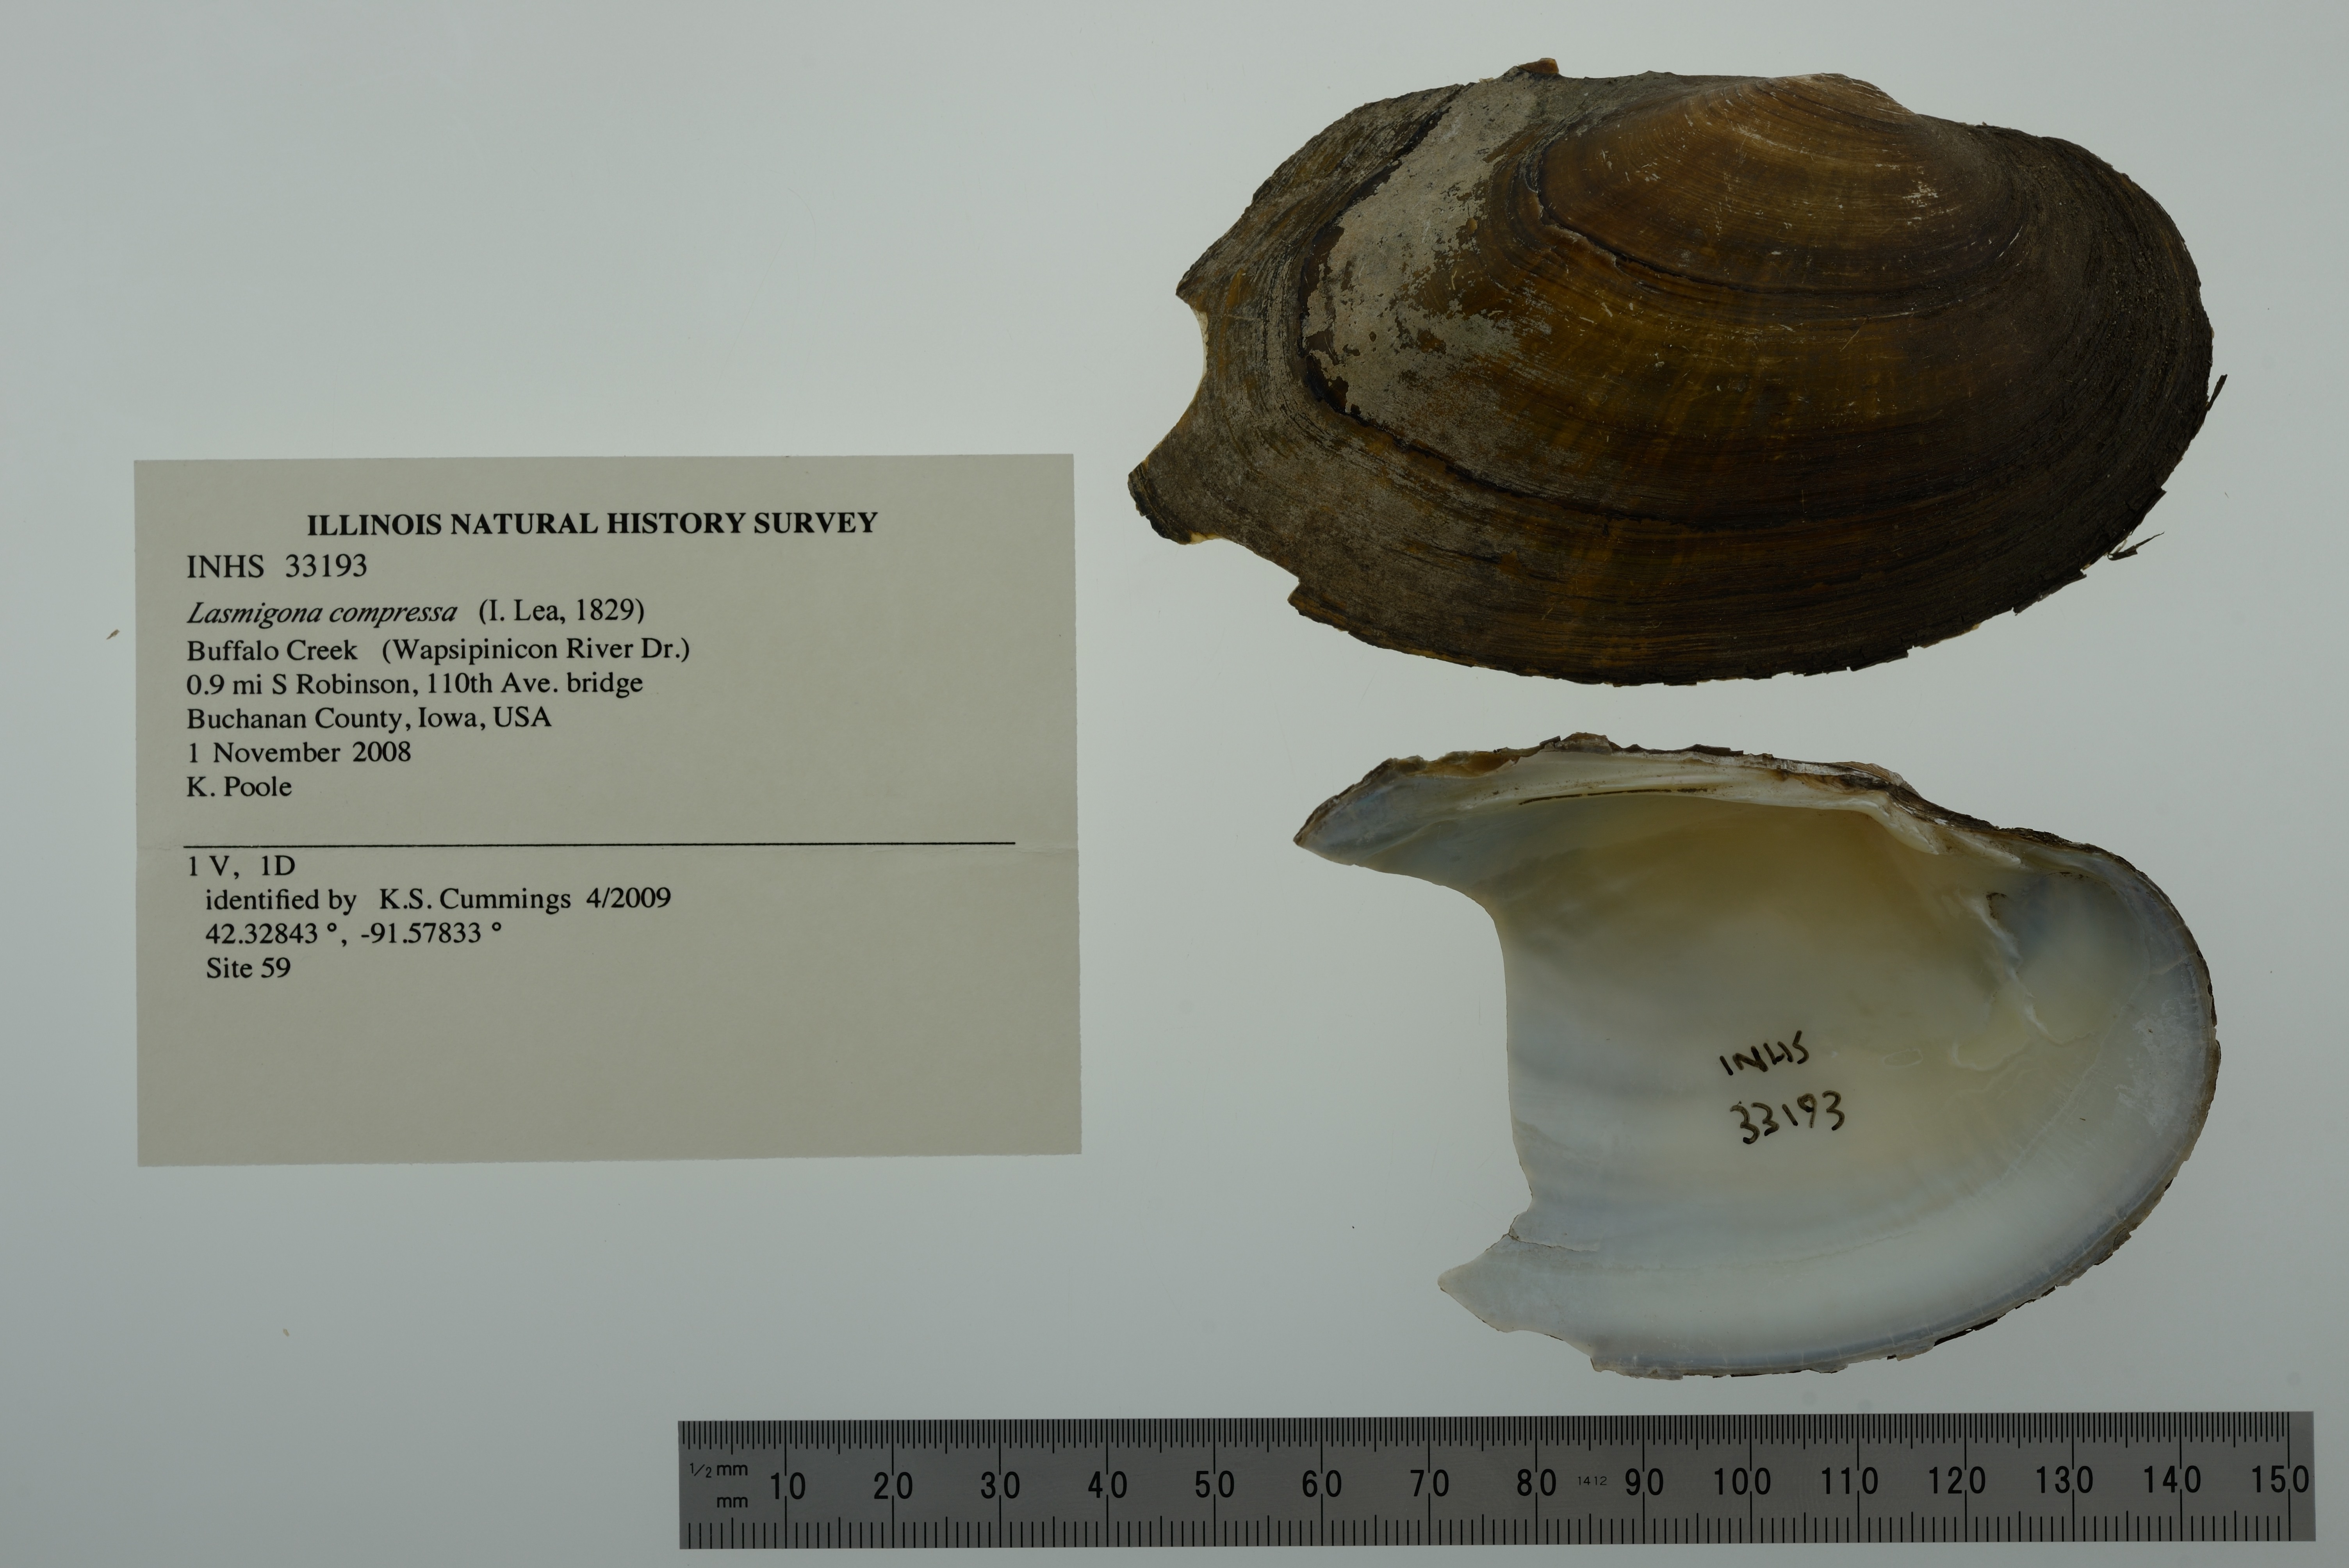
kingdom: Animalia
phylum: Mollusca
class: Bivalvia
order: Unionida
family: Unionidae
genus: Lasmigona
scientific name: Lasmigona compressa
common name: Creek heelsplitter
